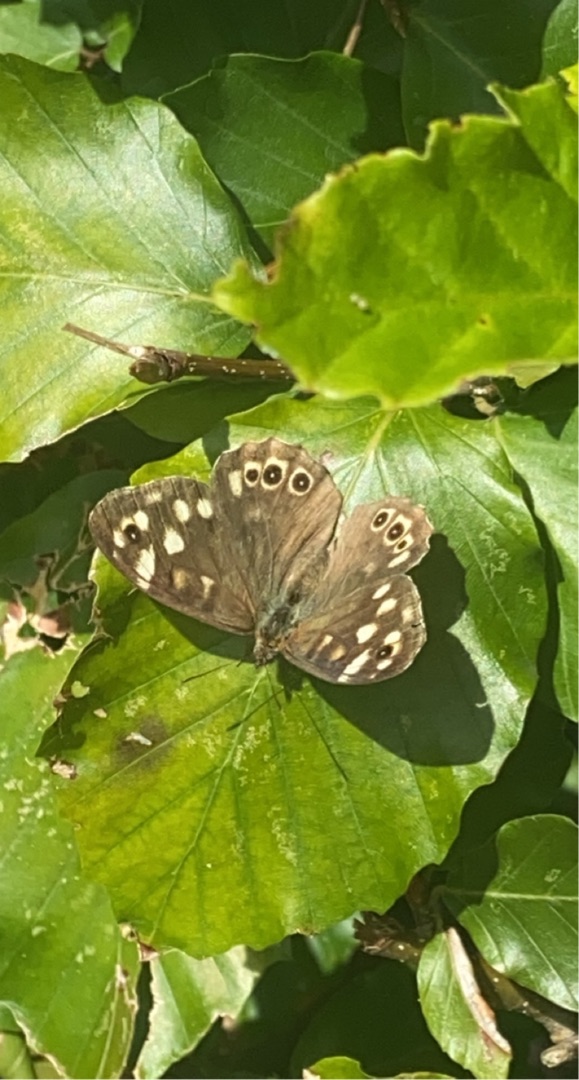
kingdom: Animalia
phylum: Arthropoda
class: Insecta
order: Lepidoptera
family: Nymphalidae
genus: Pararge
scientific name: Pararge aegeria
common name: Skovrandøje
